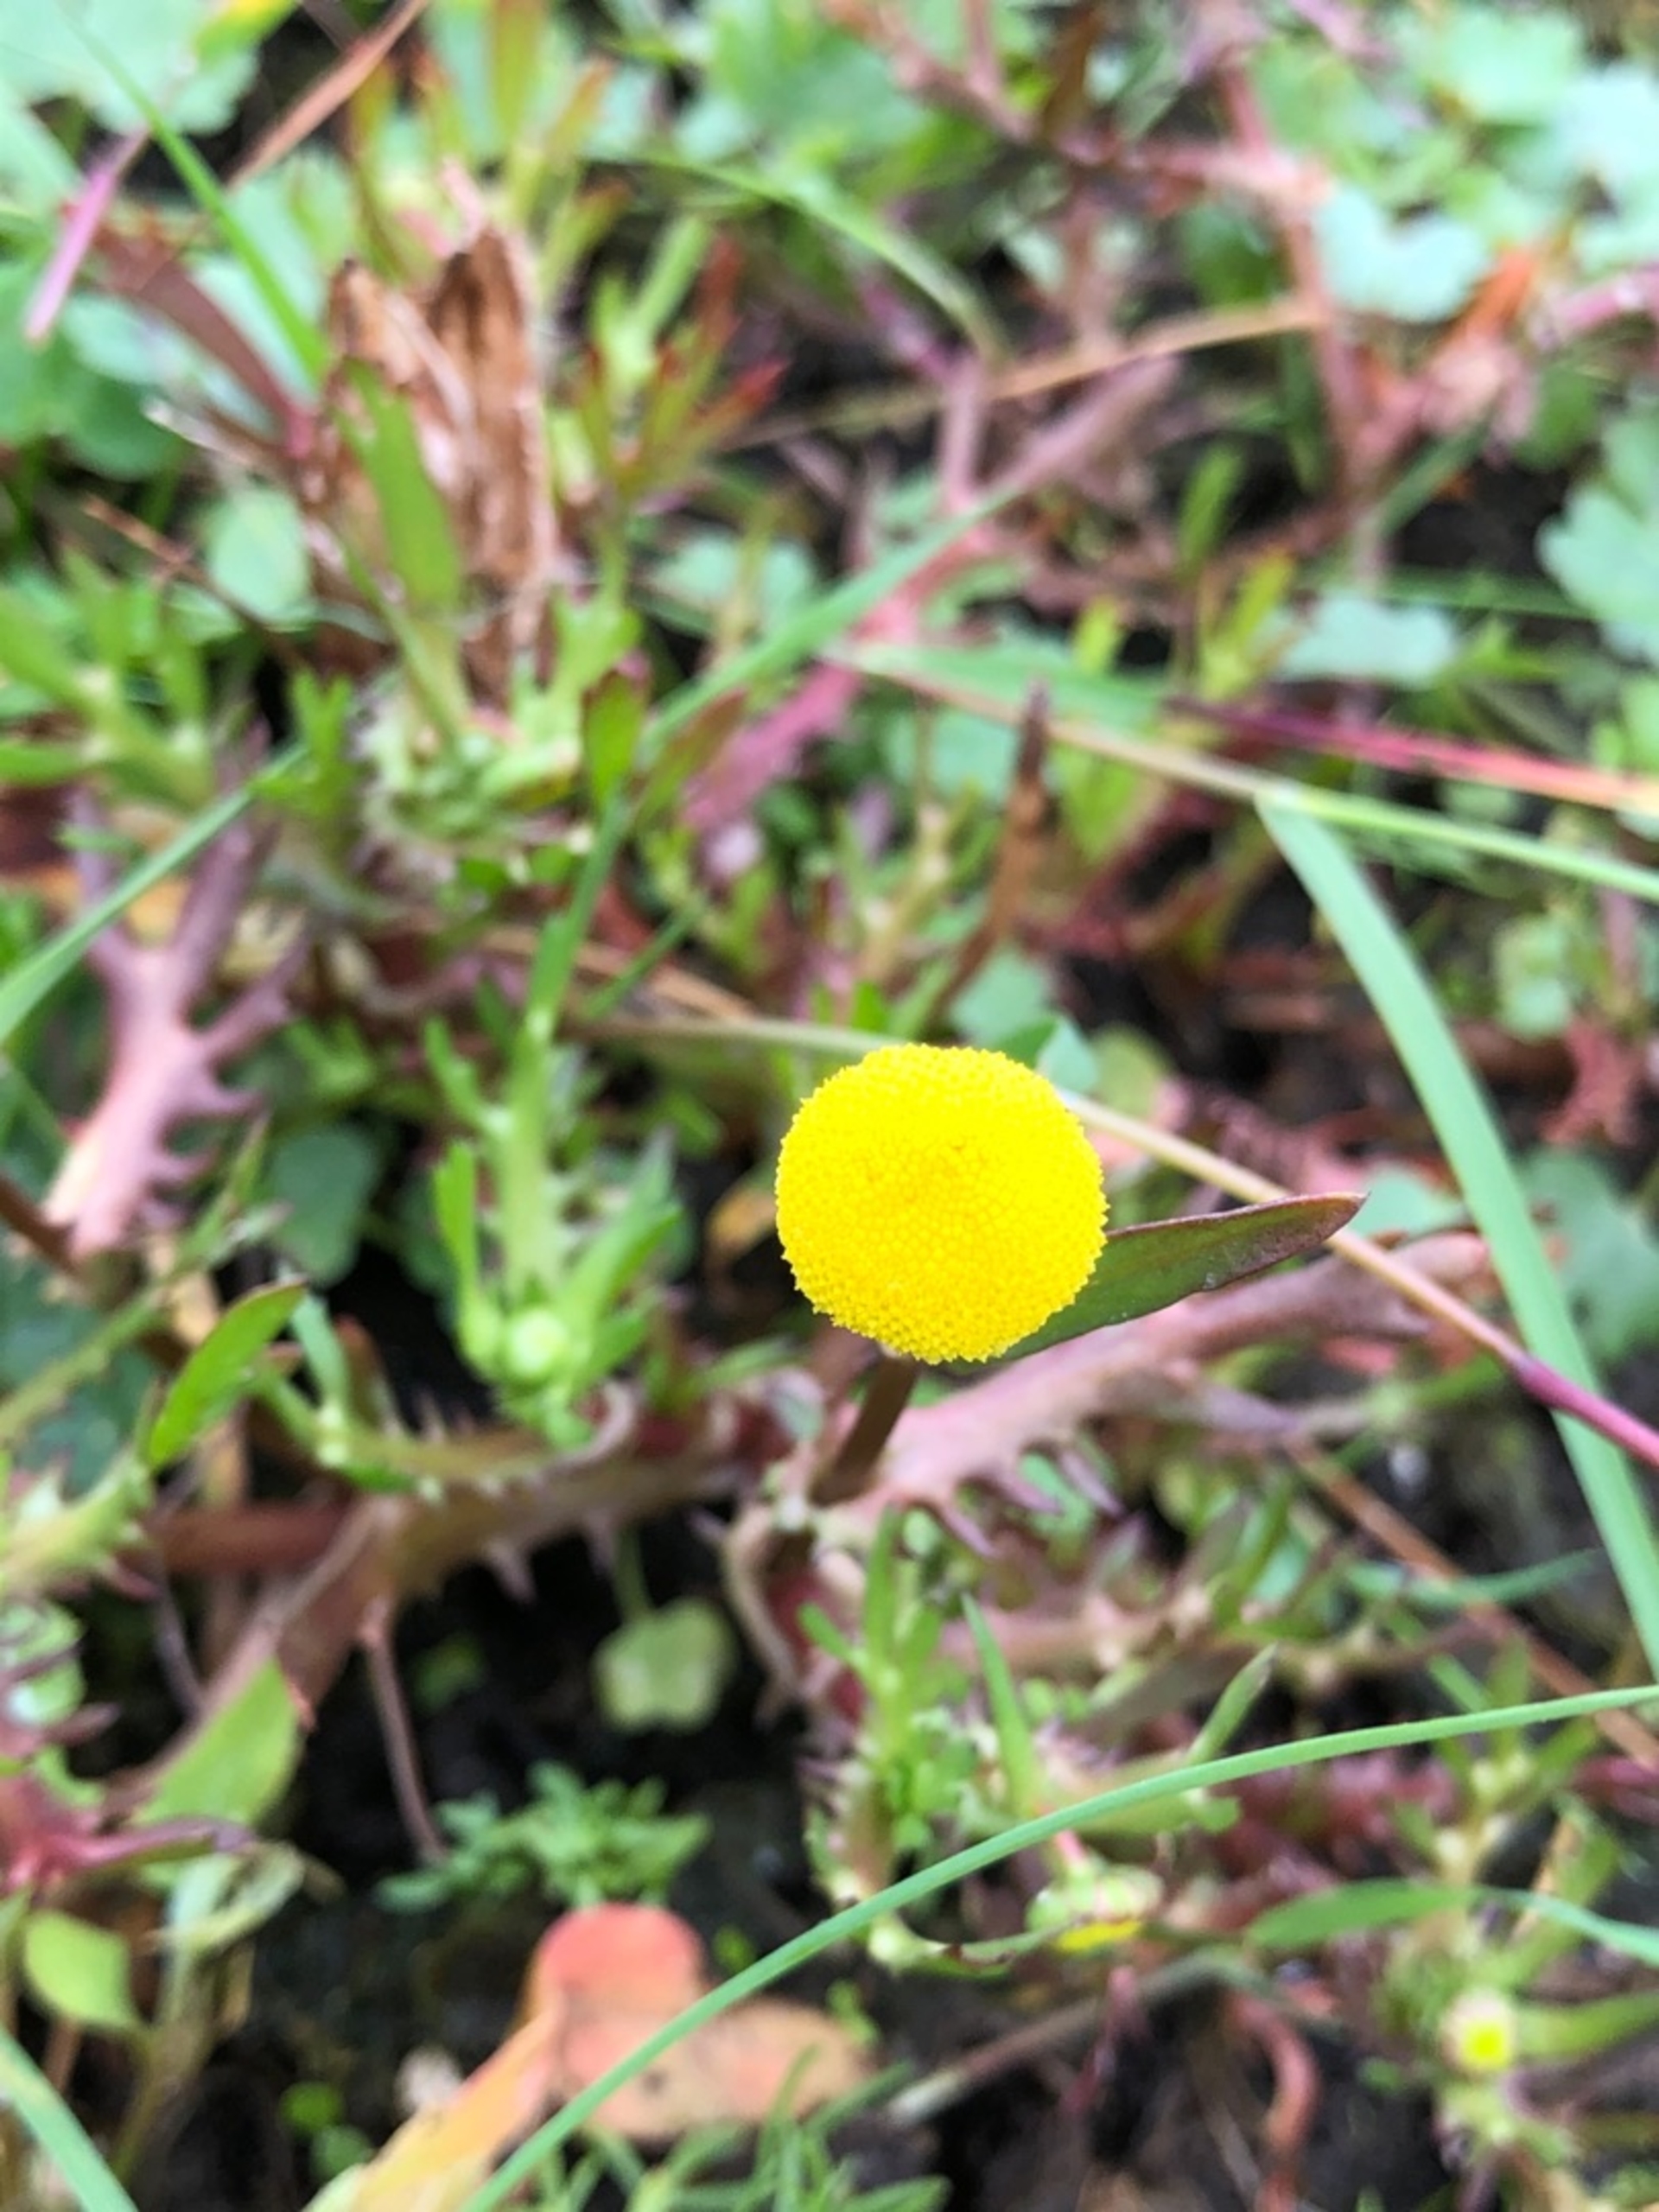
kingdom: Plantae
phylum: Tracheophyta
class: Magnoliopsida
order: Asterales
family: Asteraceae
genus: Cotula
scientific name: Cotula coronopifolia
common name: Firkløft
